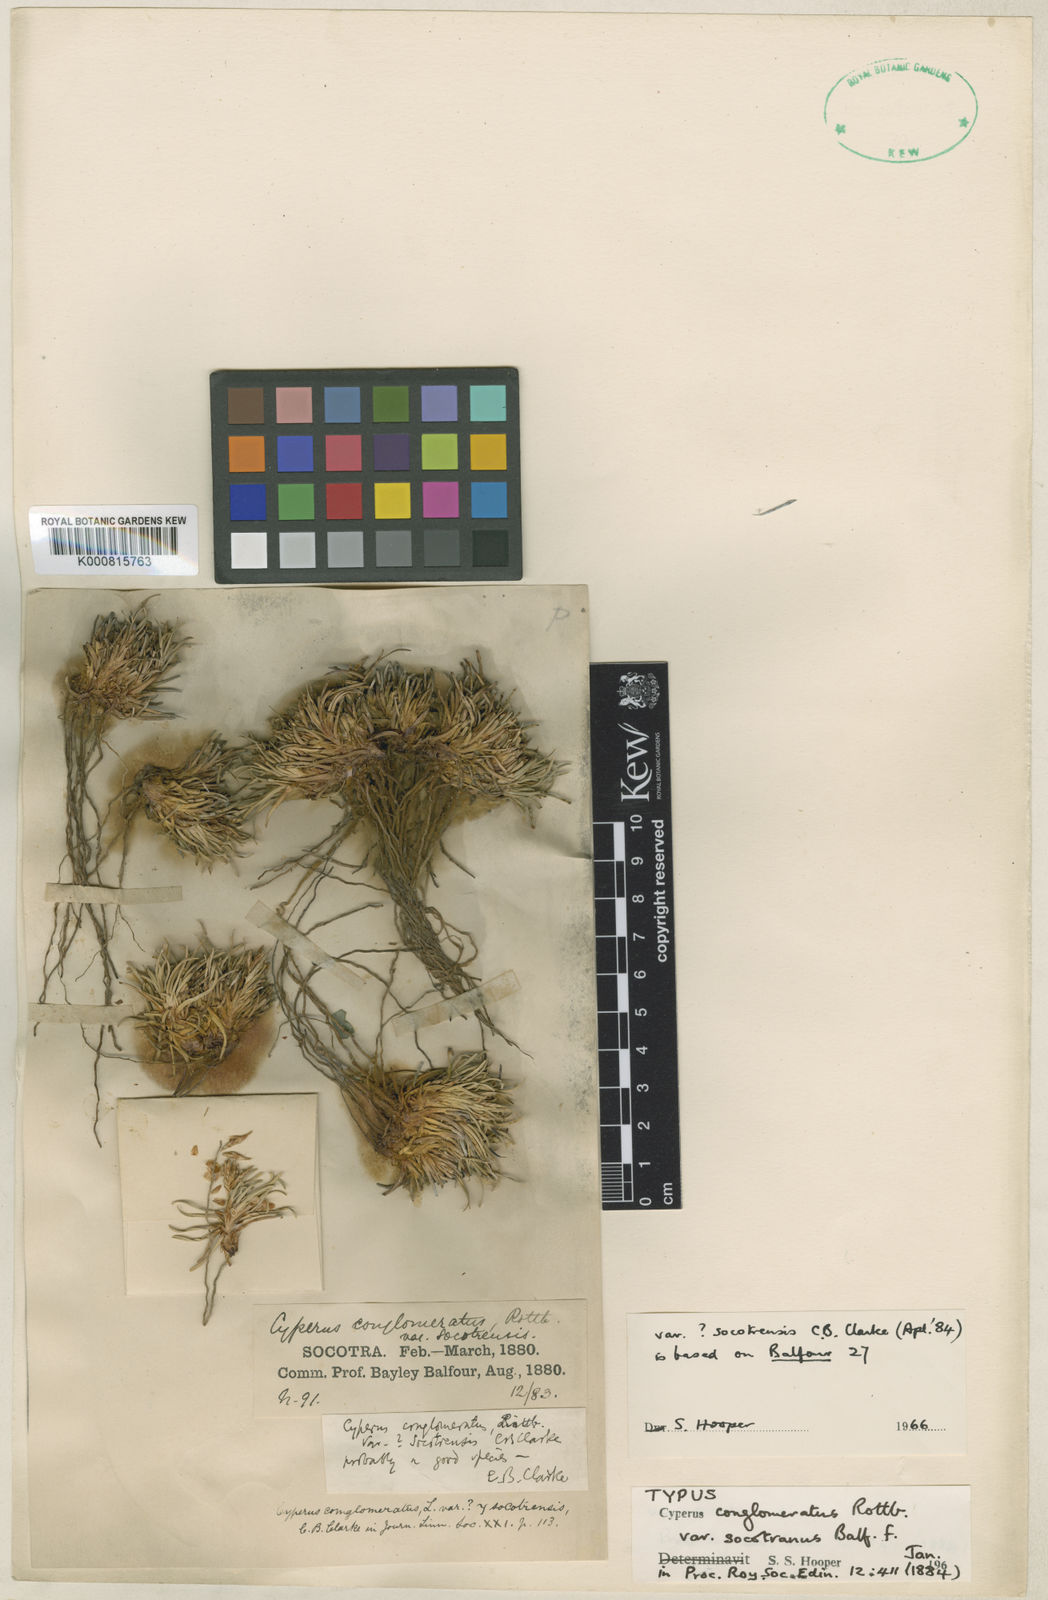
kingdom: Plantae
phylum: Tracheophyta
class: Liliopsida
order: Poales
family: Cyperaceae
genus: Cyperus
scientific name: Cyperus conglomeratus
